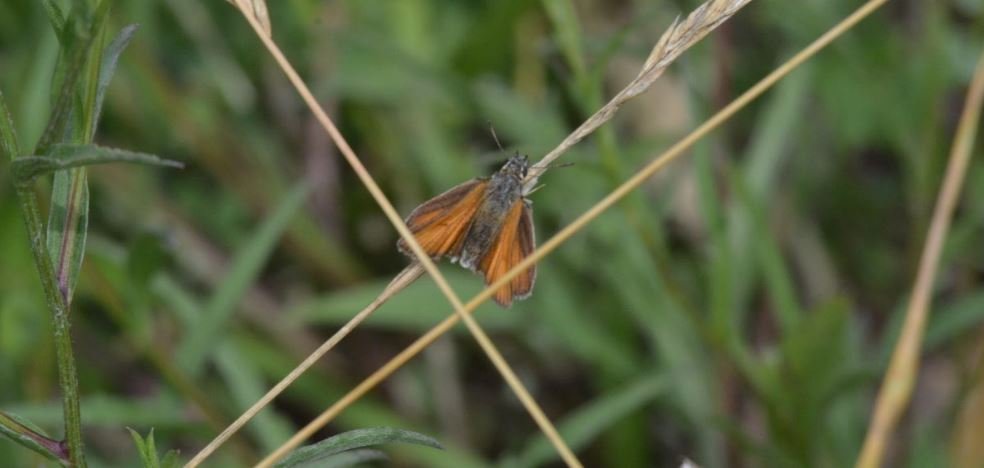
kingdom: Animalia
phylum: Arthropoda
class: Insecta
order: Lepidoptera
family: Hesperiidae
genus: Thymelicus
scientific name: Thymelicus lineola
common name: European Skipper
